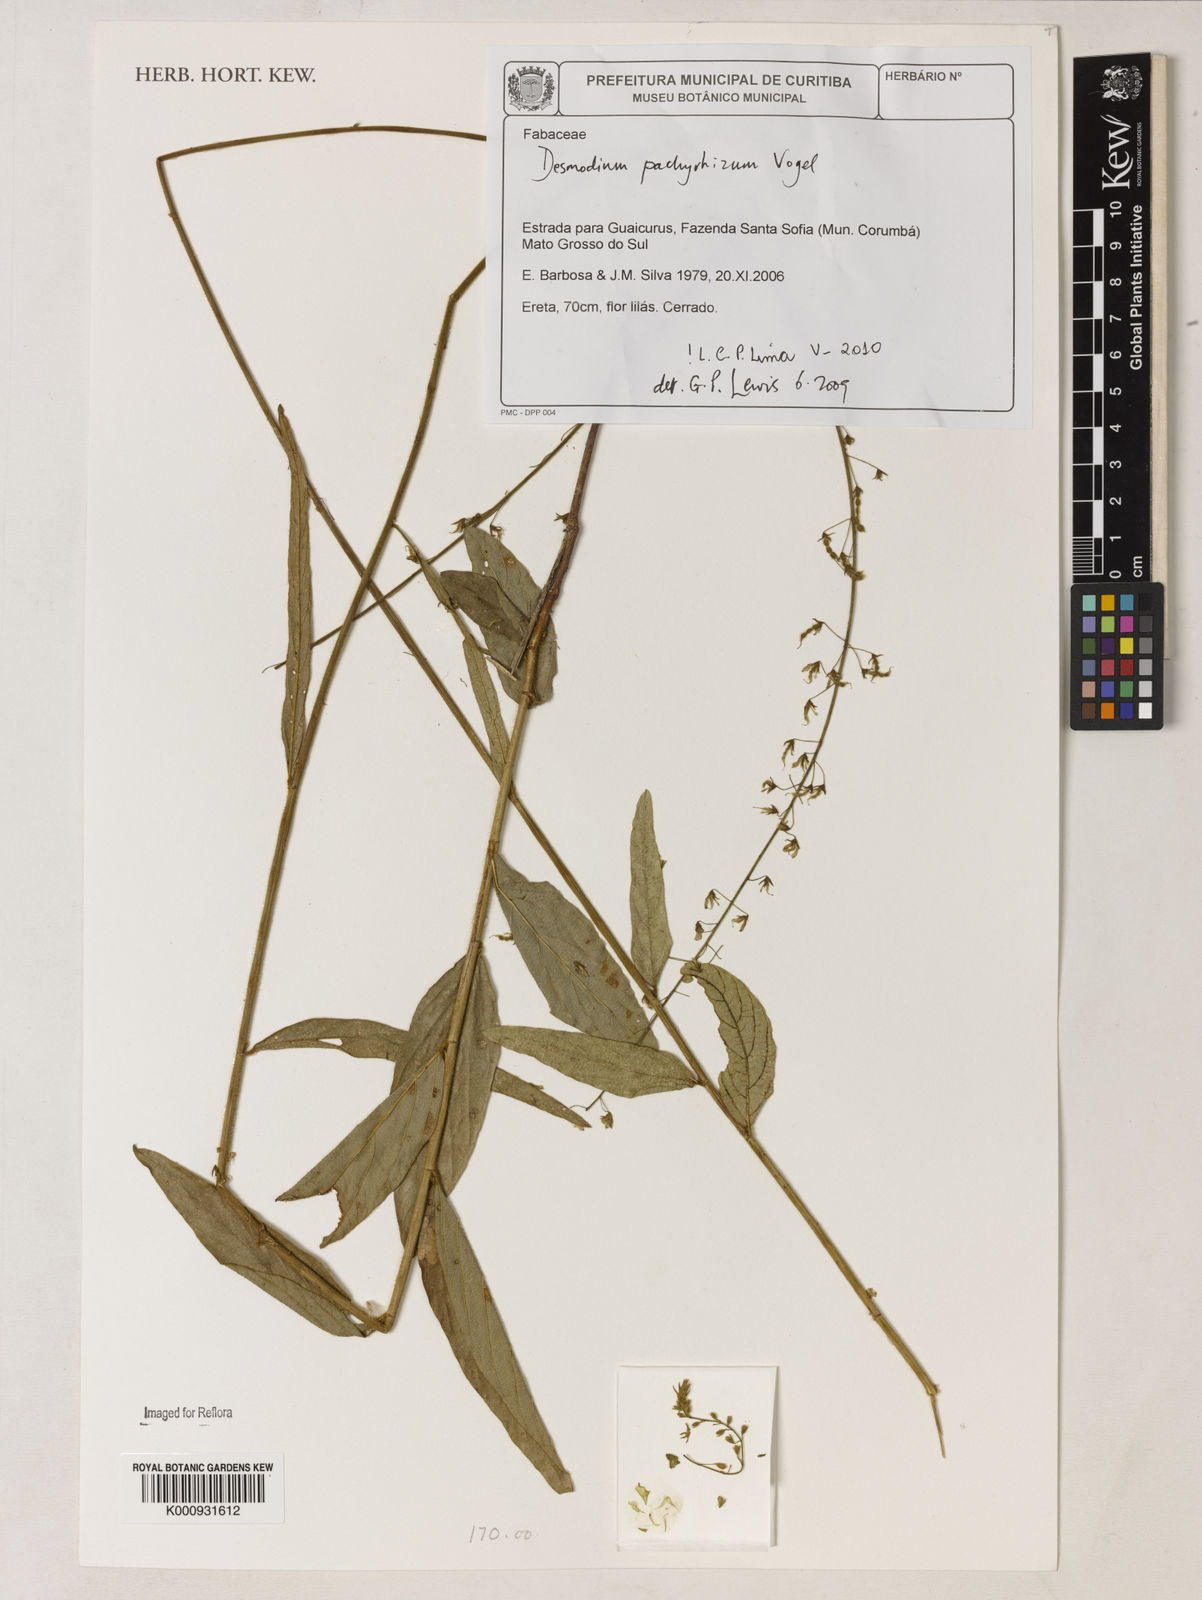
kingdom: Plantae
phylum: Tracheophyta
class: Magnoliopsida
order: Fabales
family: Fabaceae
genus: Desmodium
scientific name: Desmodium pachyrhizum
